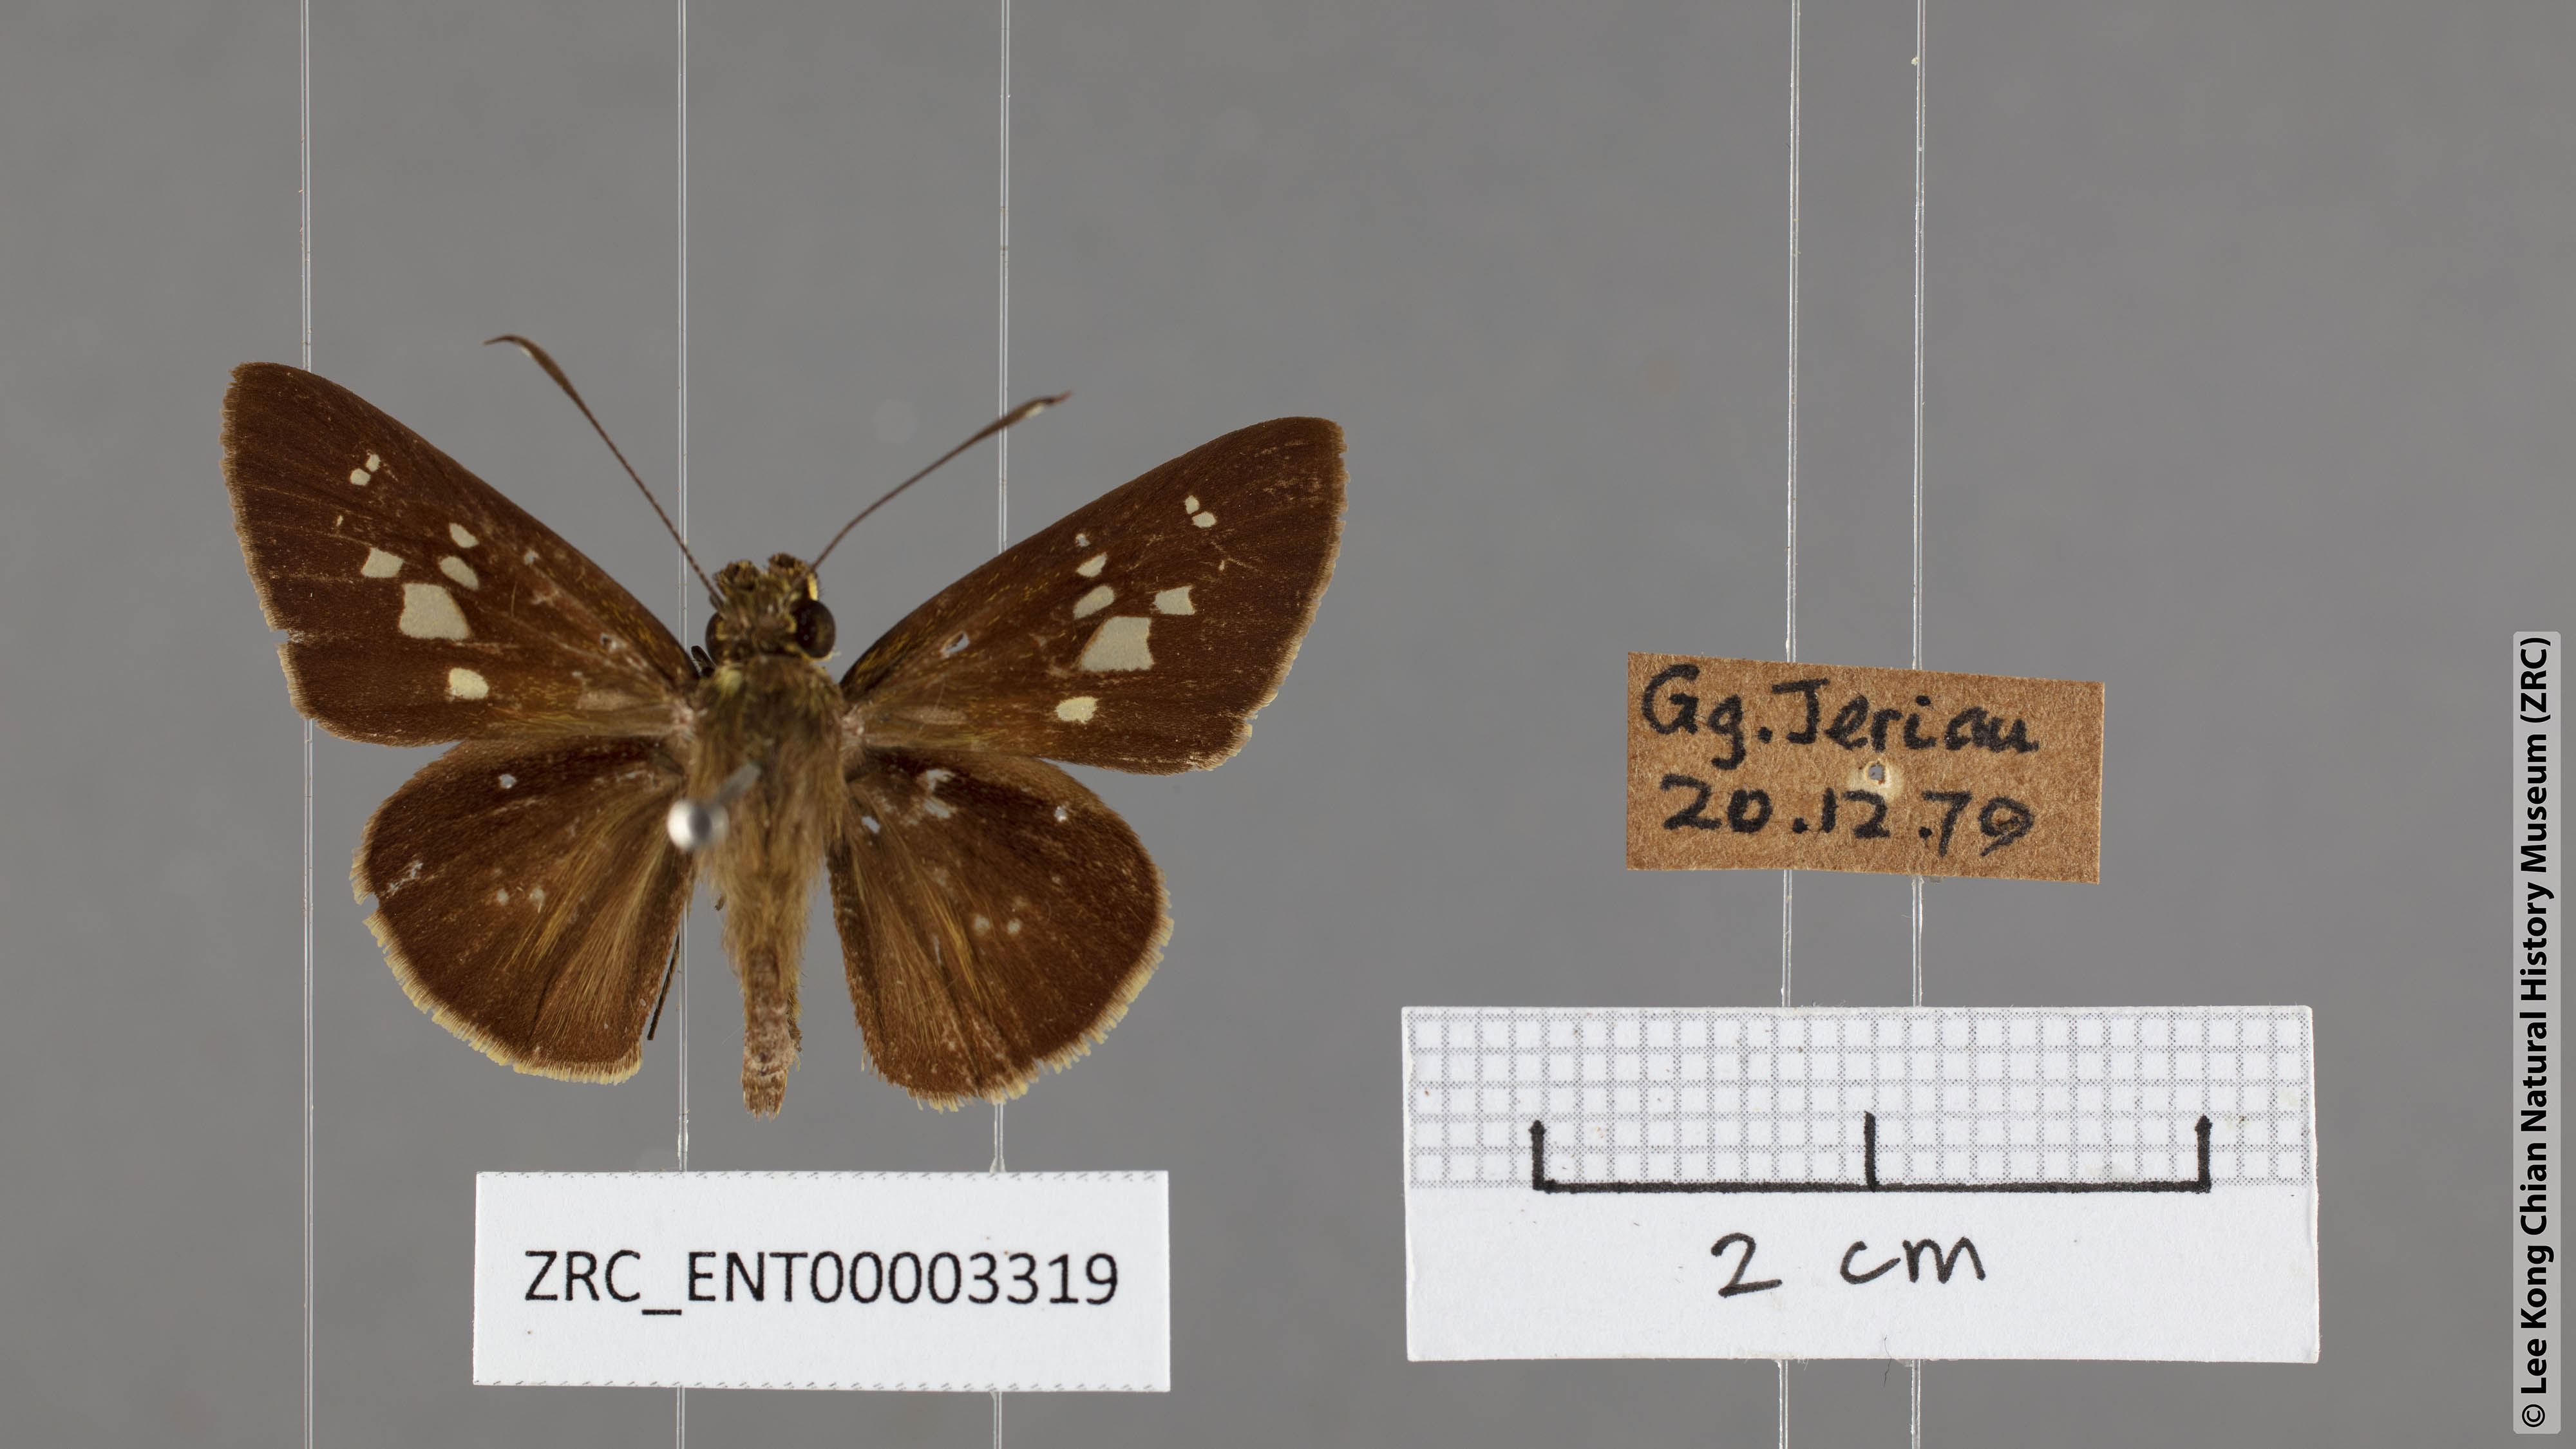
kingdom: Animalia
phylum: Arthropoda
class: Insecta
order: Lepidoptera
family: Hesperiidae
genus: Isma
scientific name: Isma umbrosa
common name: Large long-banded flitter
